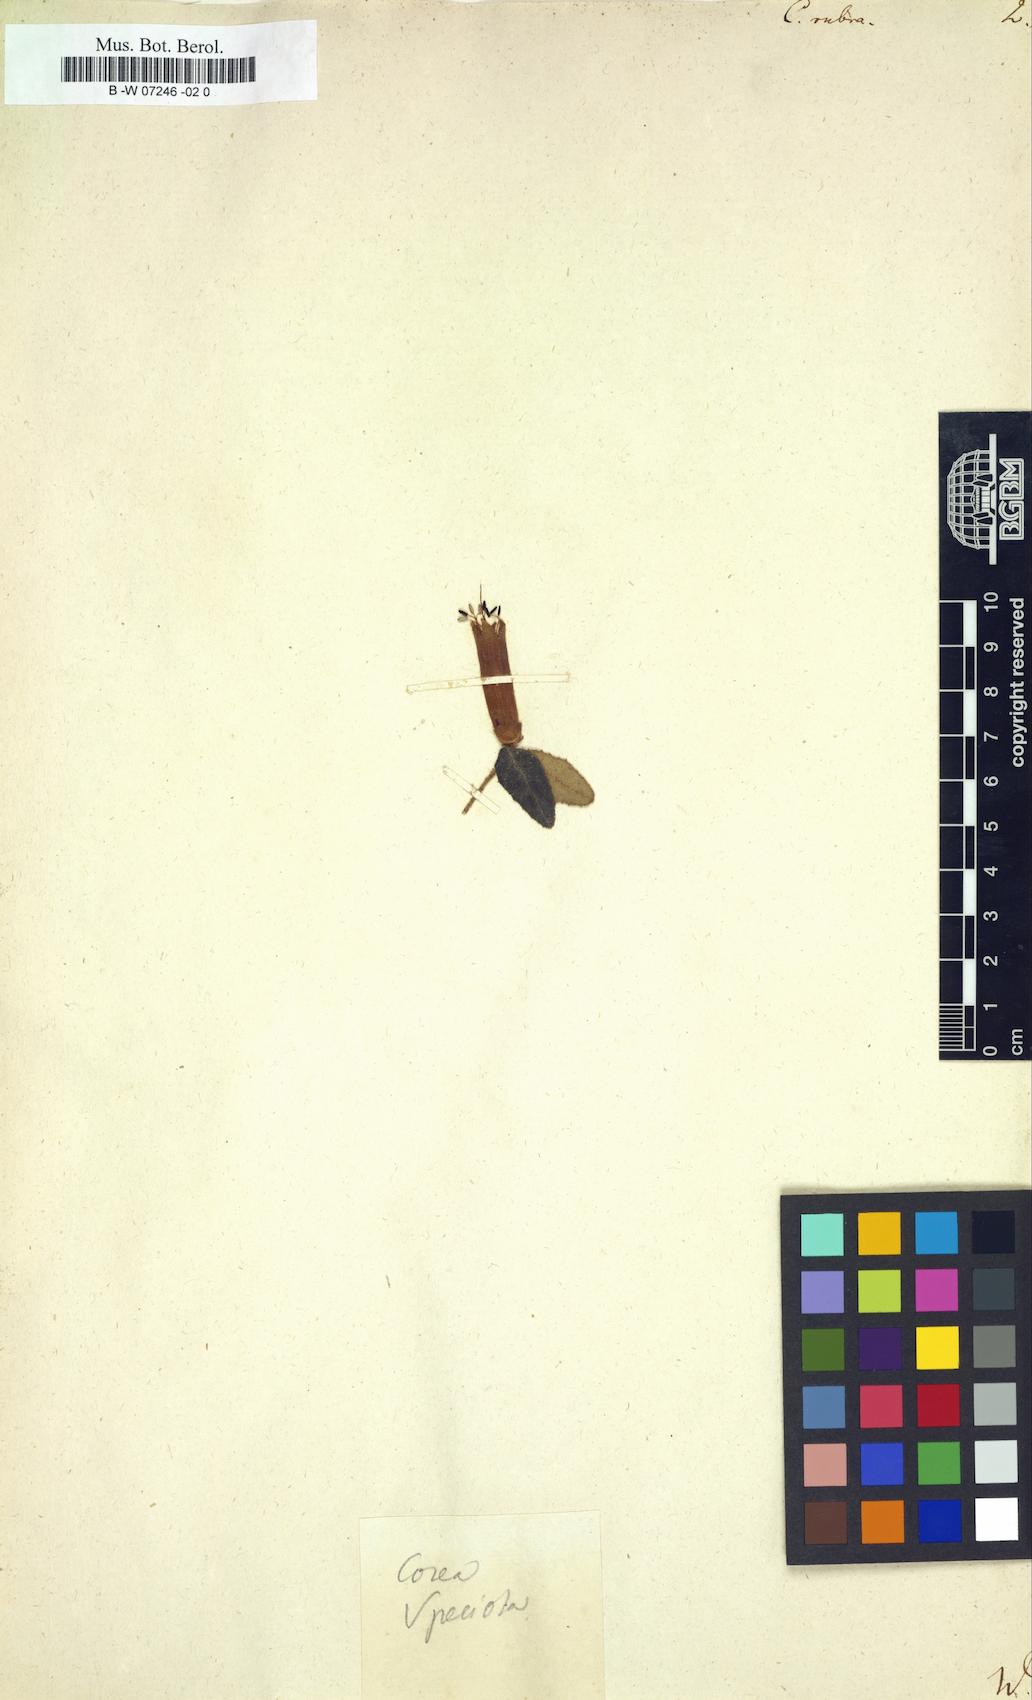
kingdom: Plantae
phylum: Tracheophyta
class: Magnoliopsida
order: Sapindales
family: Rutaceae
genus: Correa
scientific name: Correa rubra
